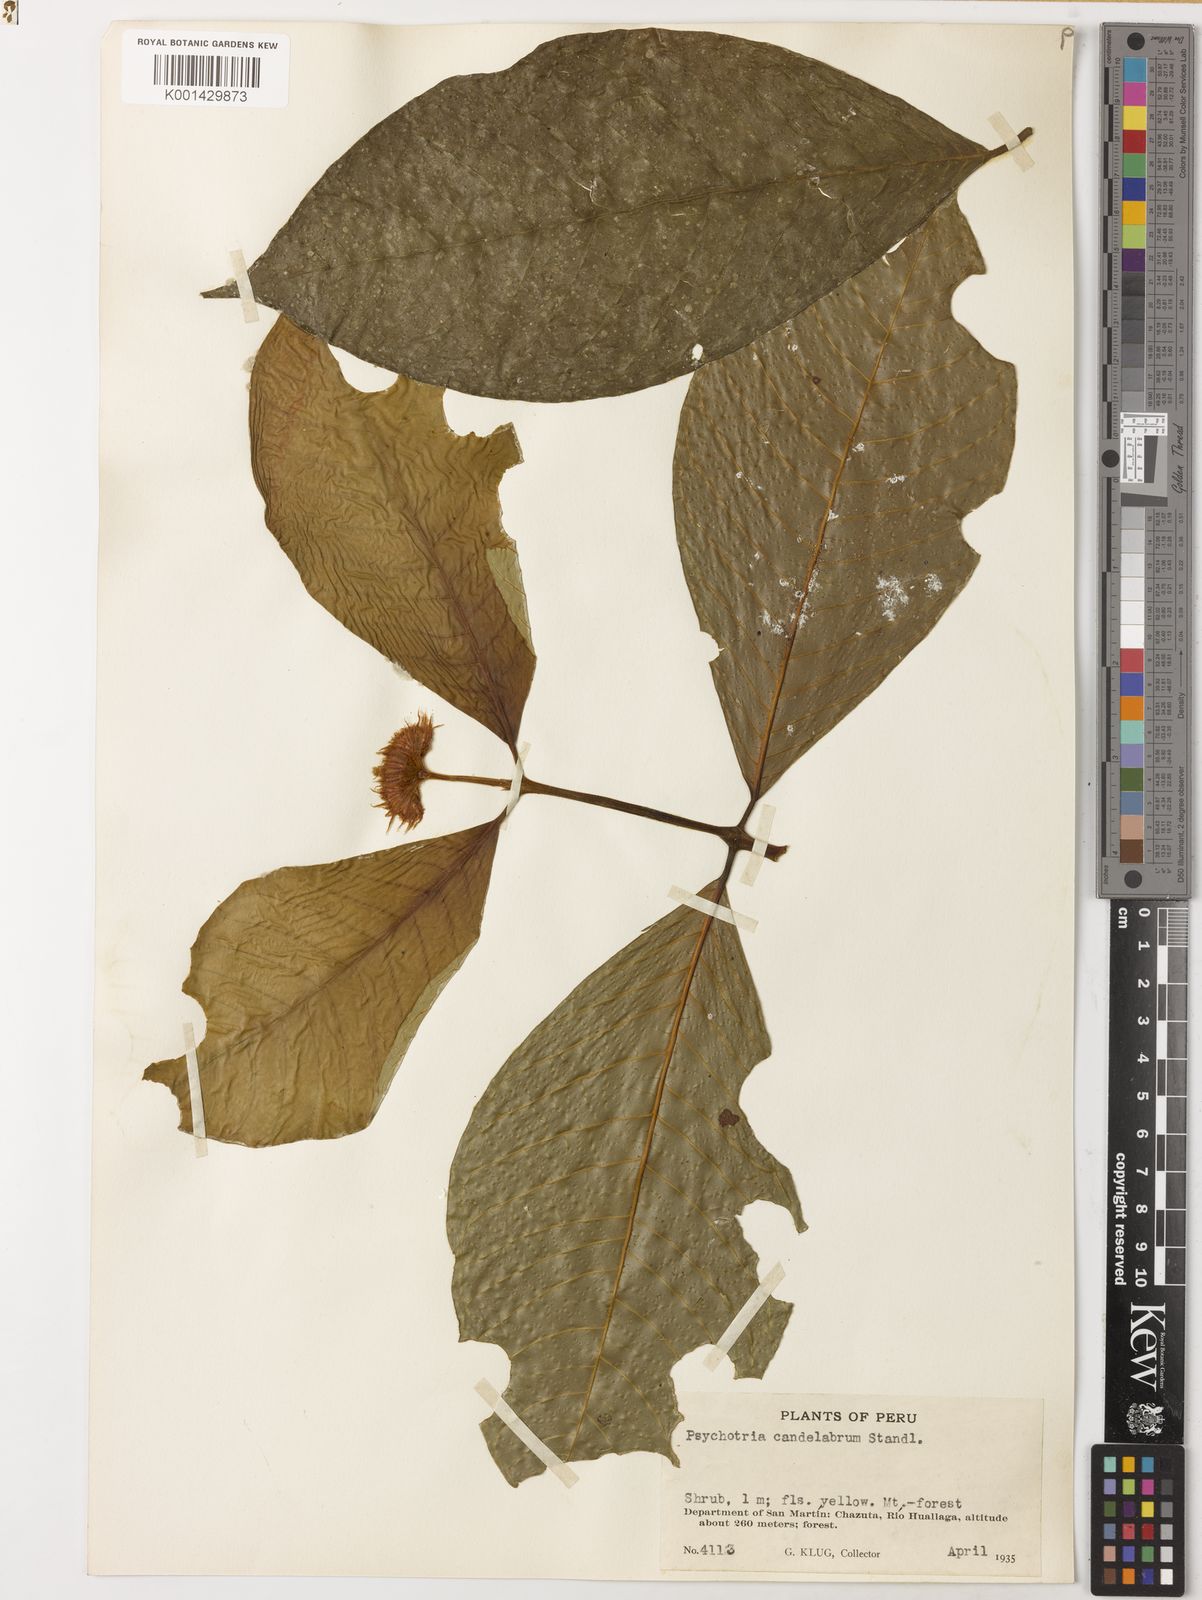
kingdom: Plantae
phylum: Tracheophyta
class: Magnoliopsida
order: Gentianales
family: Rubiaceae
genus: Palicourea
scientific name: Palicourea candelabrum
